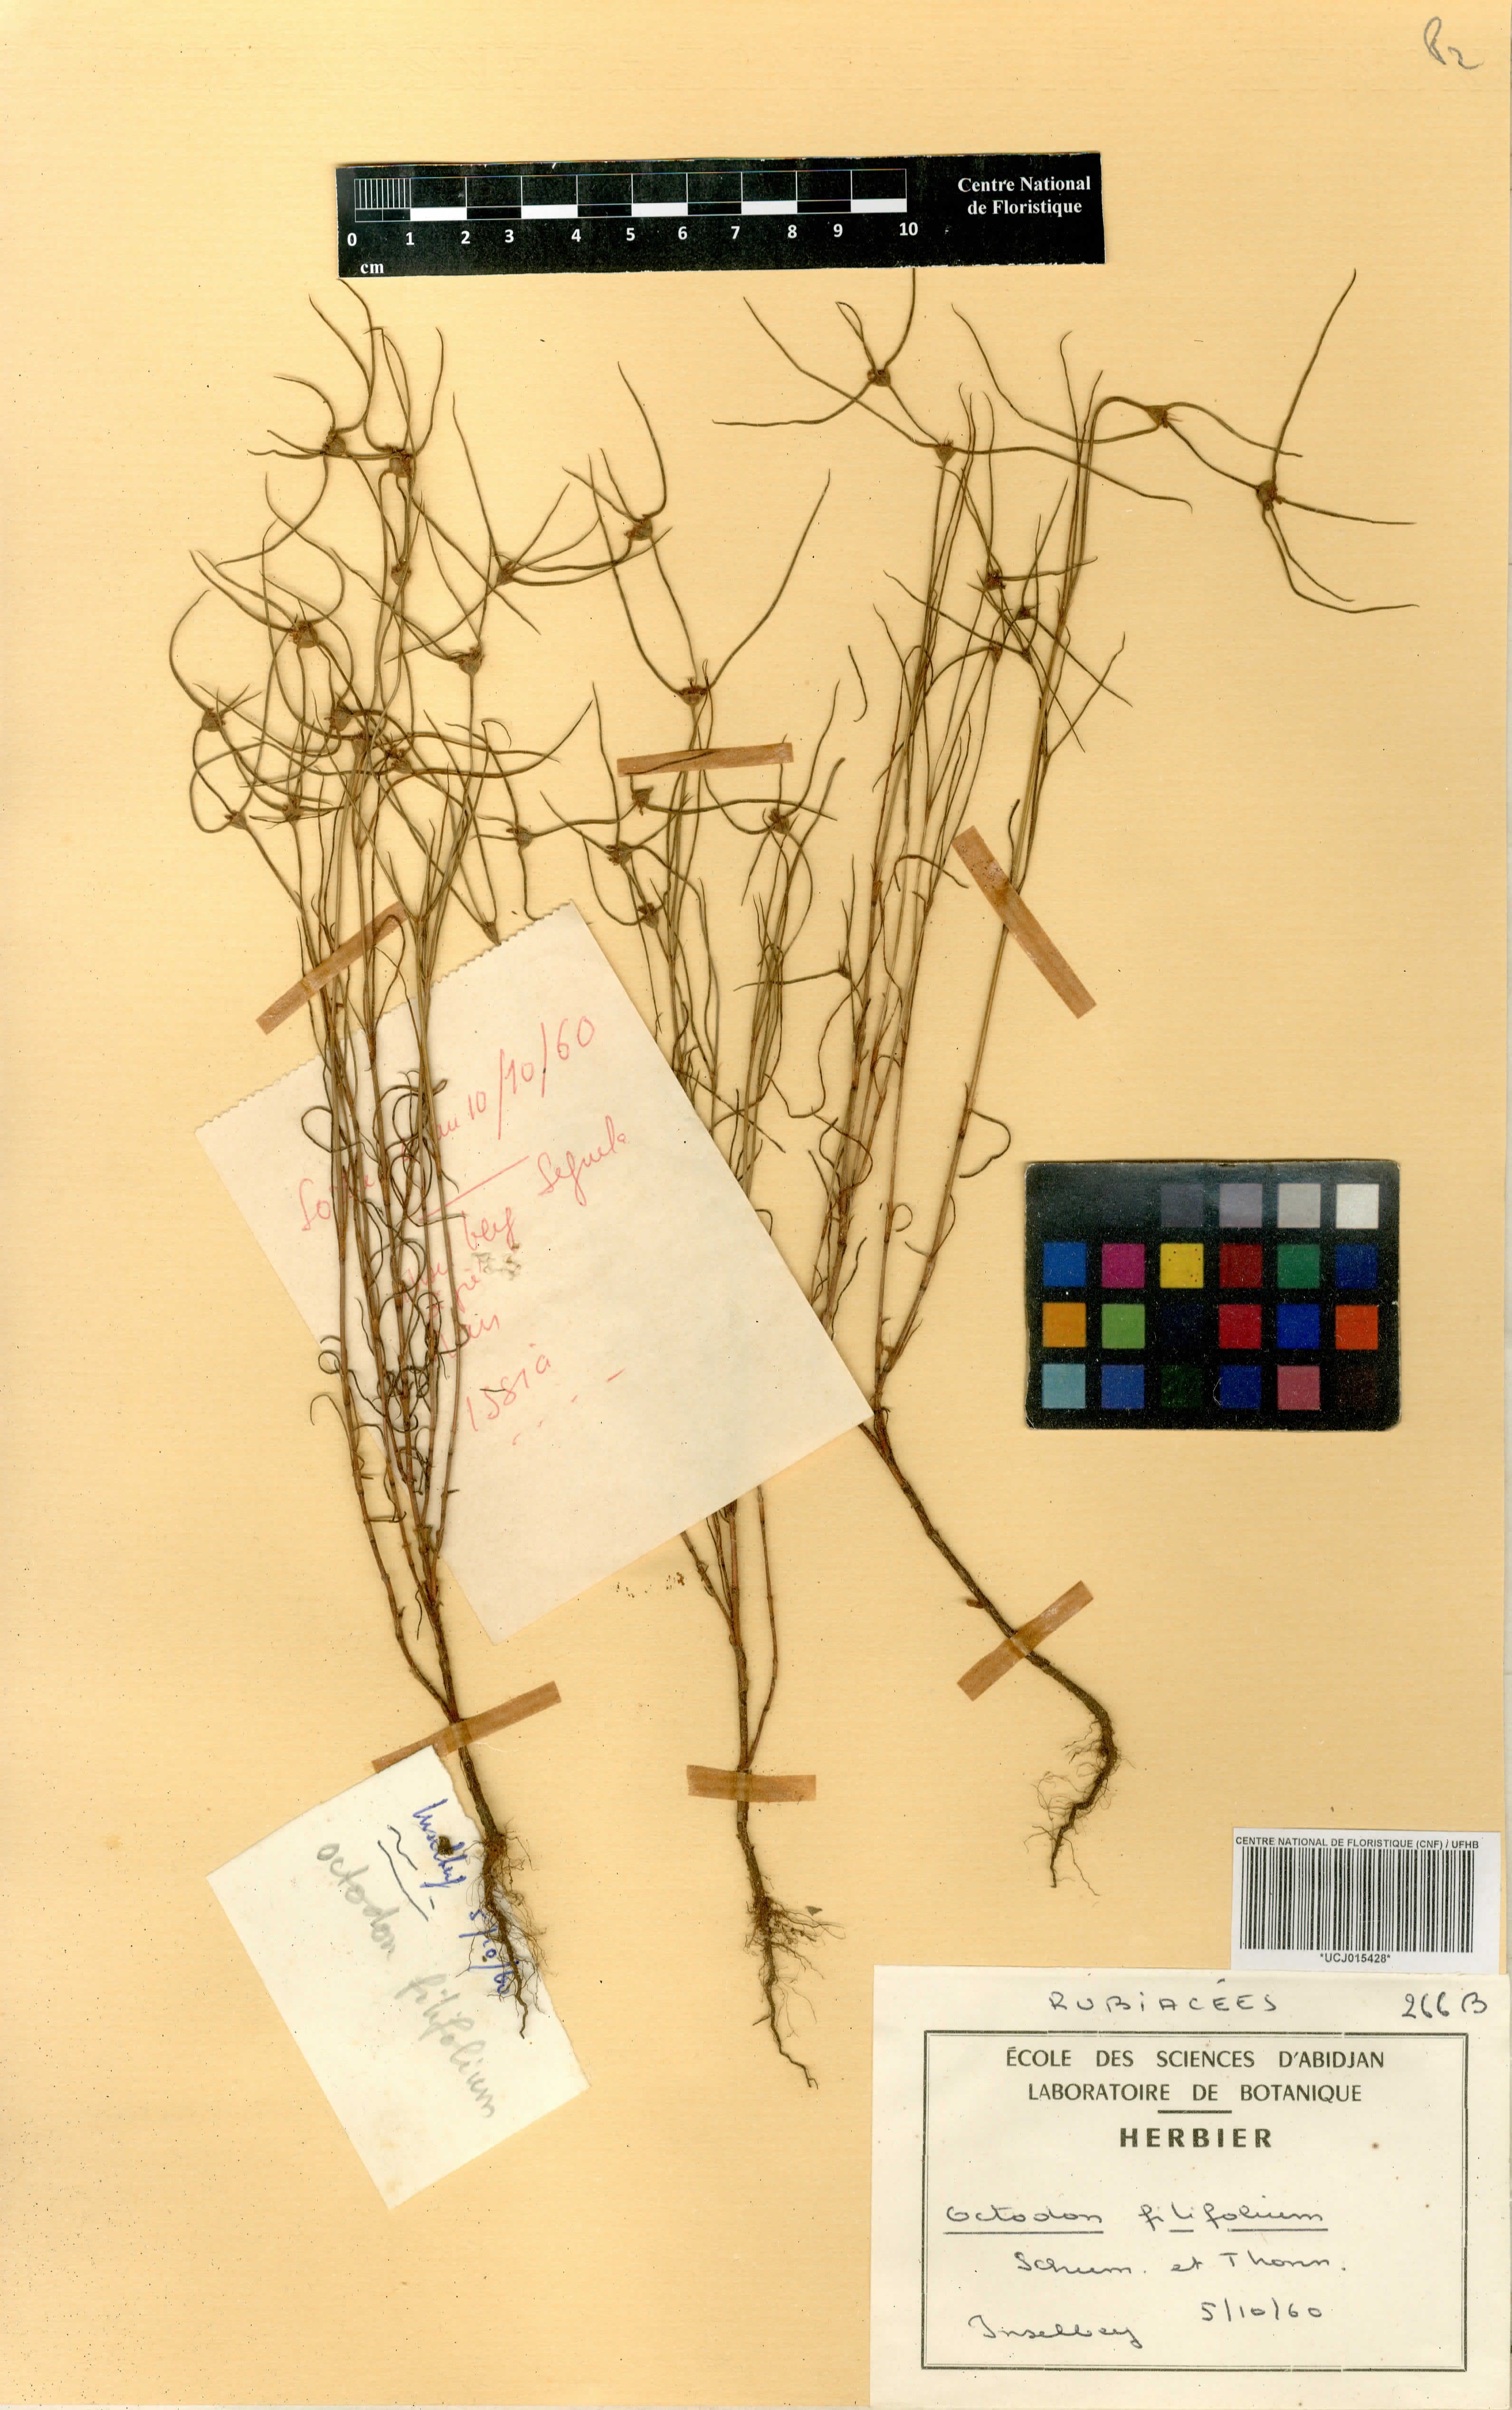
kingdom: Plantae
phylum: Tracheophyta
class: Magnoliopsida
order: Gentianales
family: Rubiaceae
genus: Spermacoce
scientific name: Spermacoce filifolia
